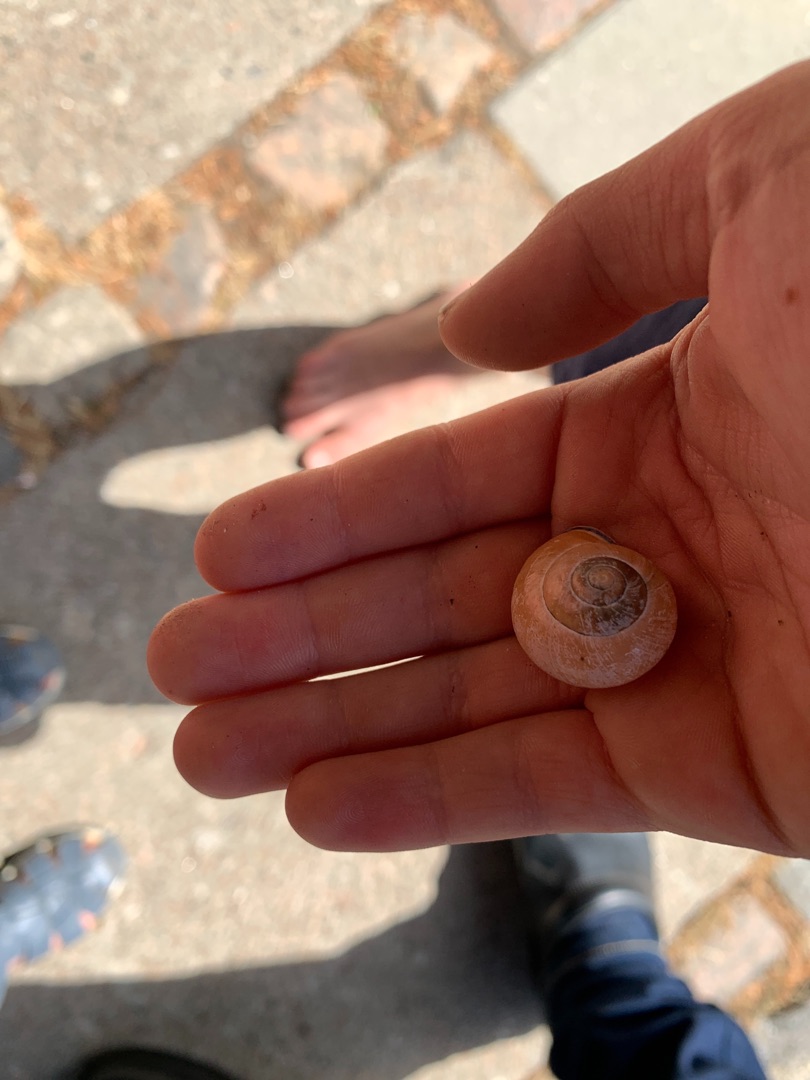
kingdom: Animalia
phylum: Mollusca
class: Gastropoda
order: Stylommatophora
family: Helicidae
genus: Cepaea
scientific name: Cepaea nemoralis
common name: Lundsnegl
